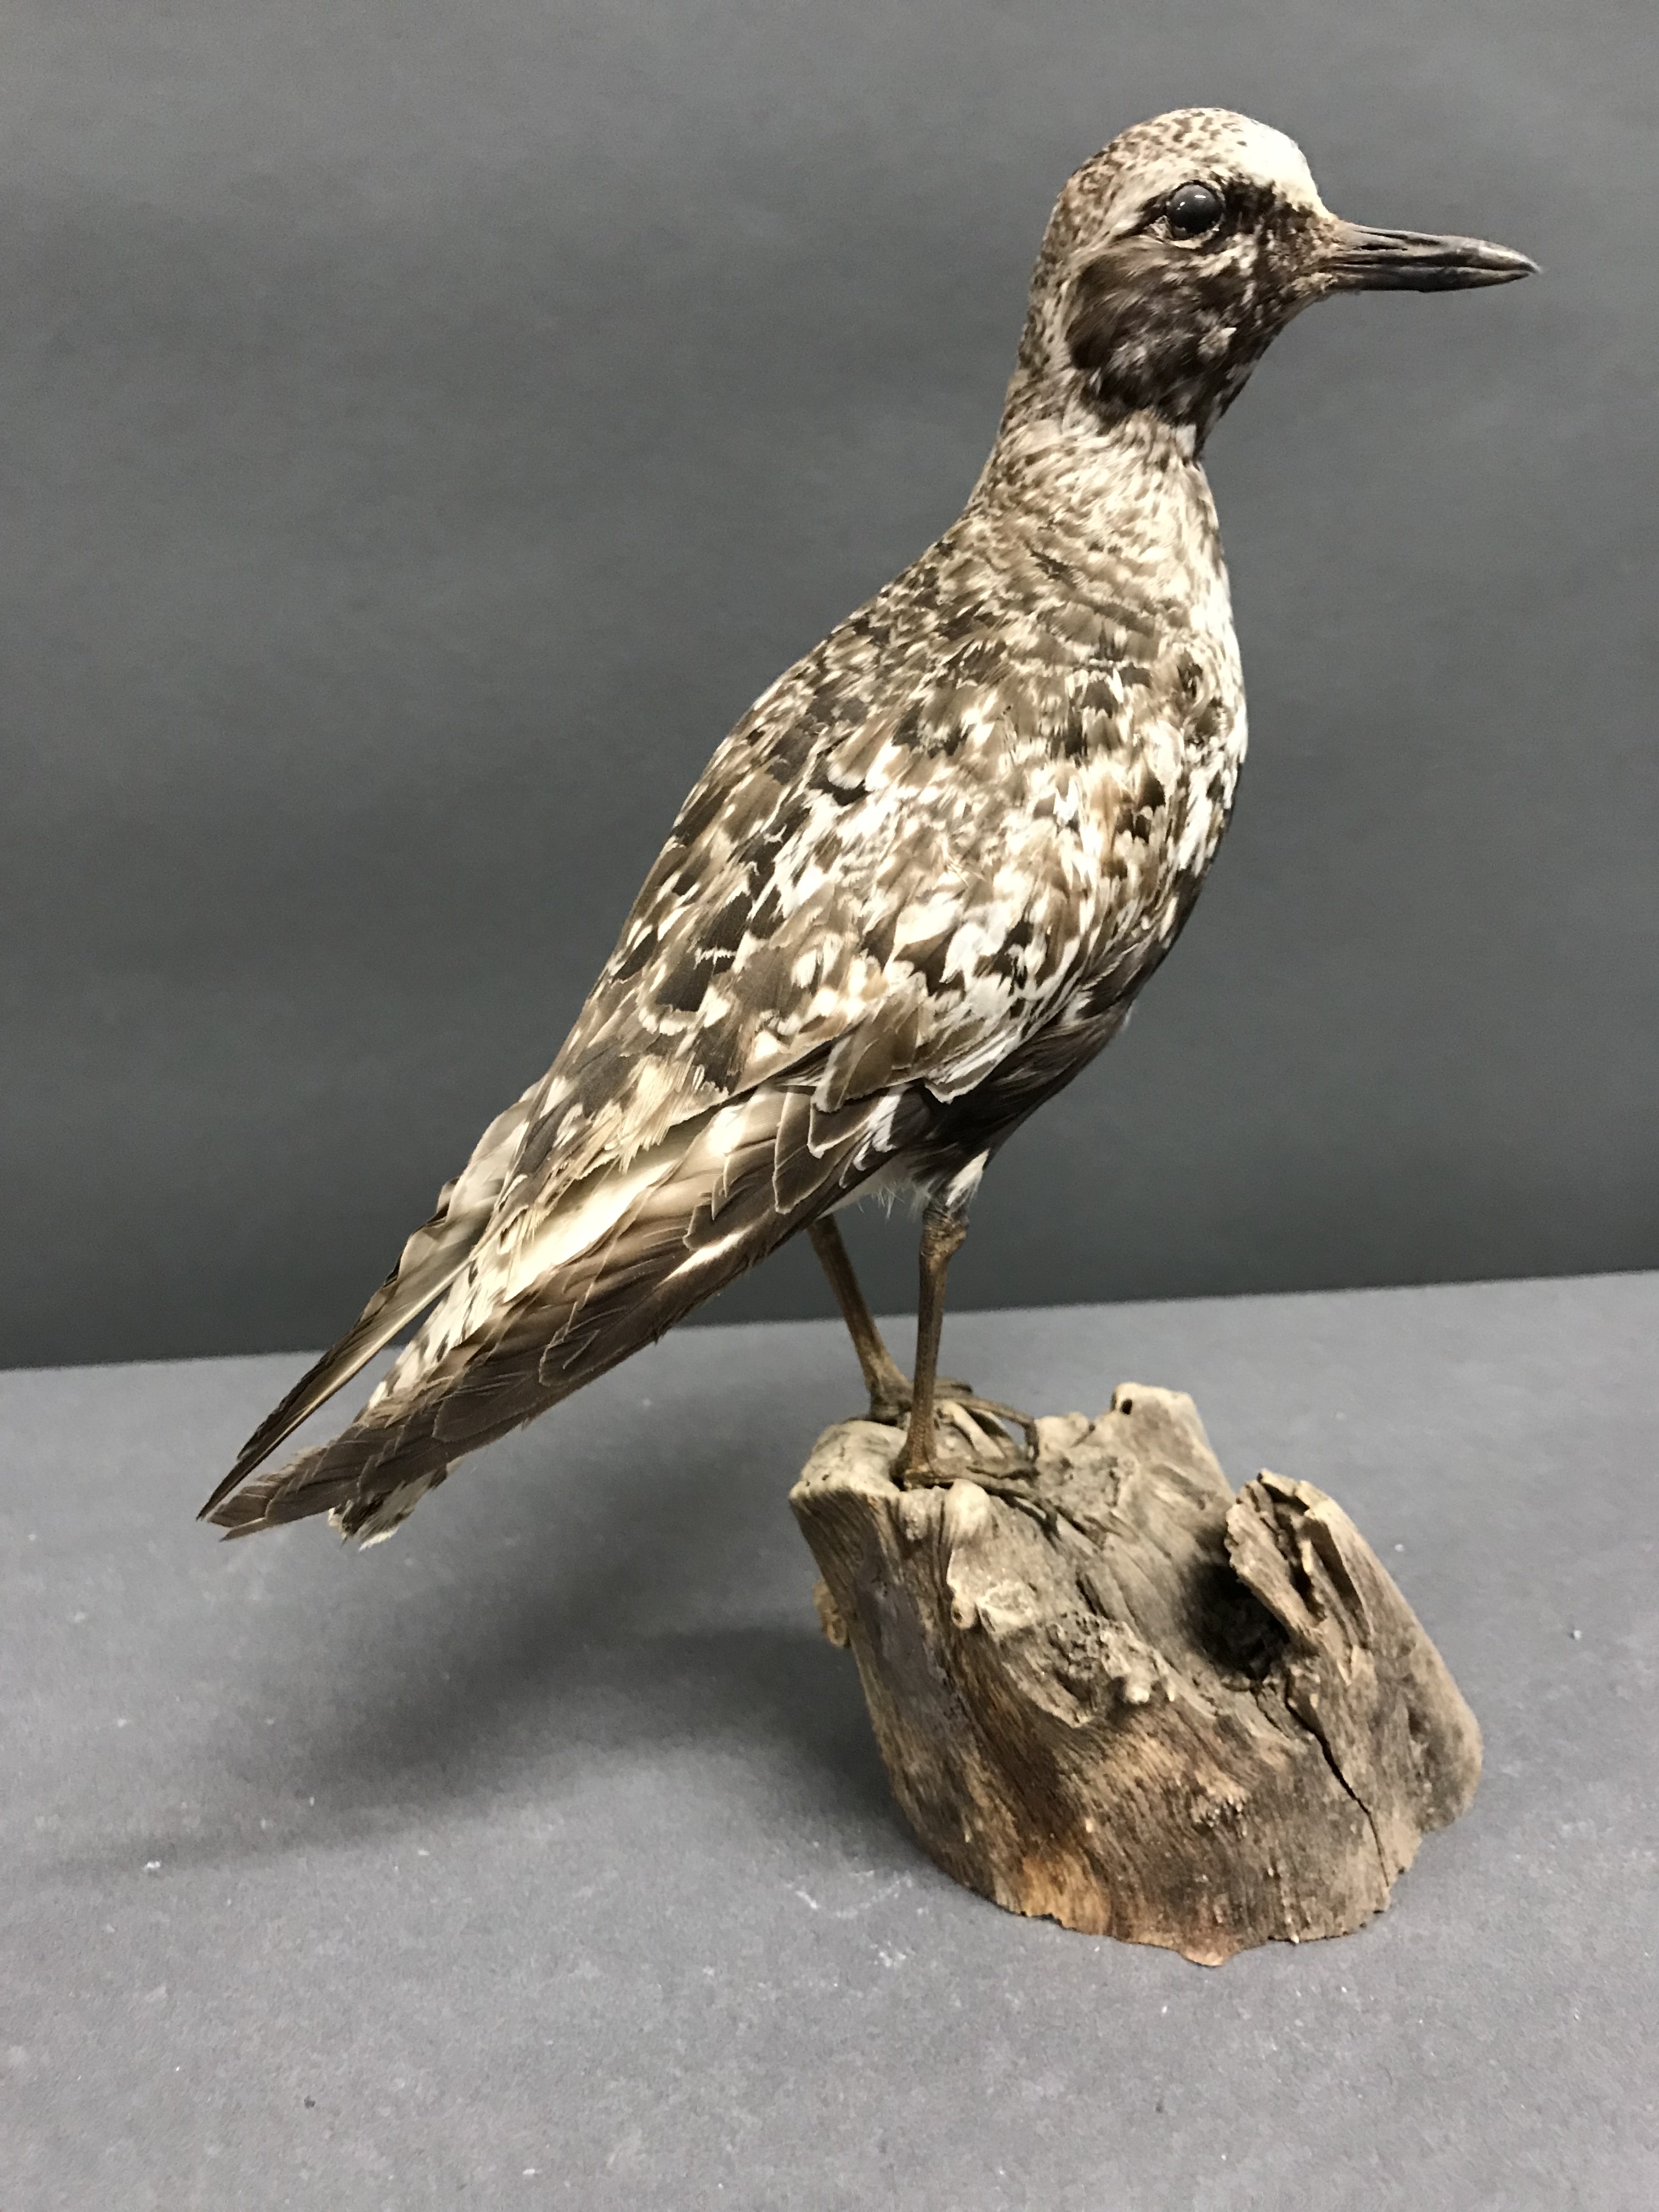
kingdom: Animalia
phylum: Chordata
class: Aves
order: Charadriiformes
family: Charadriidae
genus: Pluvialis
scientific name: Pluvialis squatarola
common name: Grey plover
